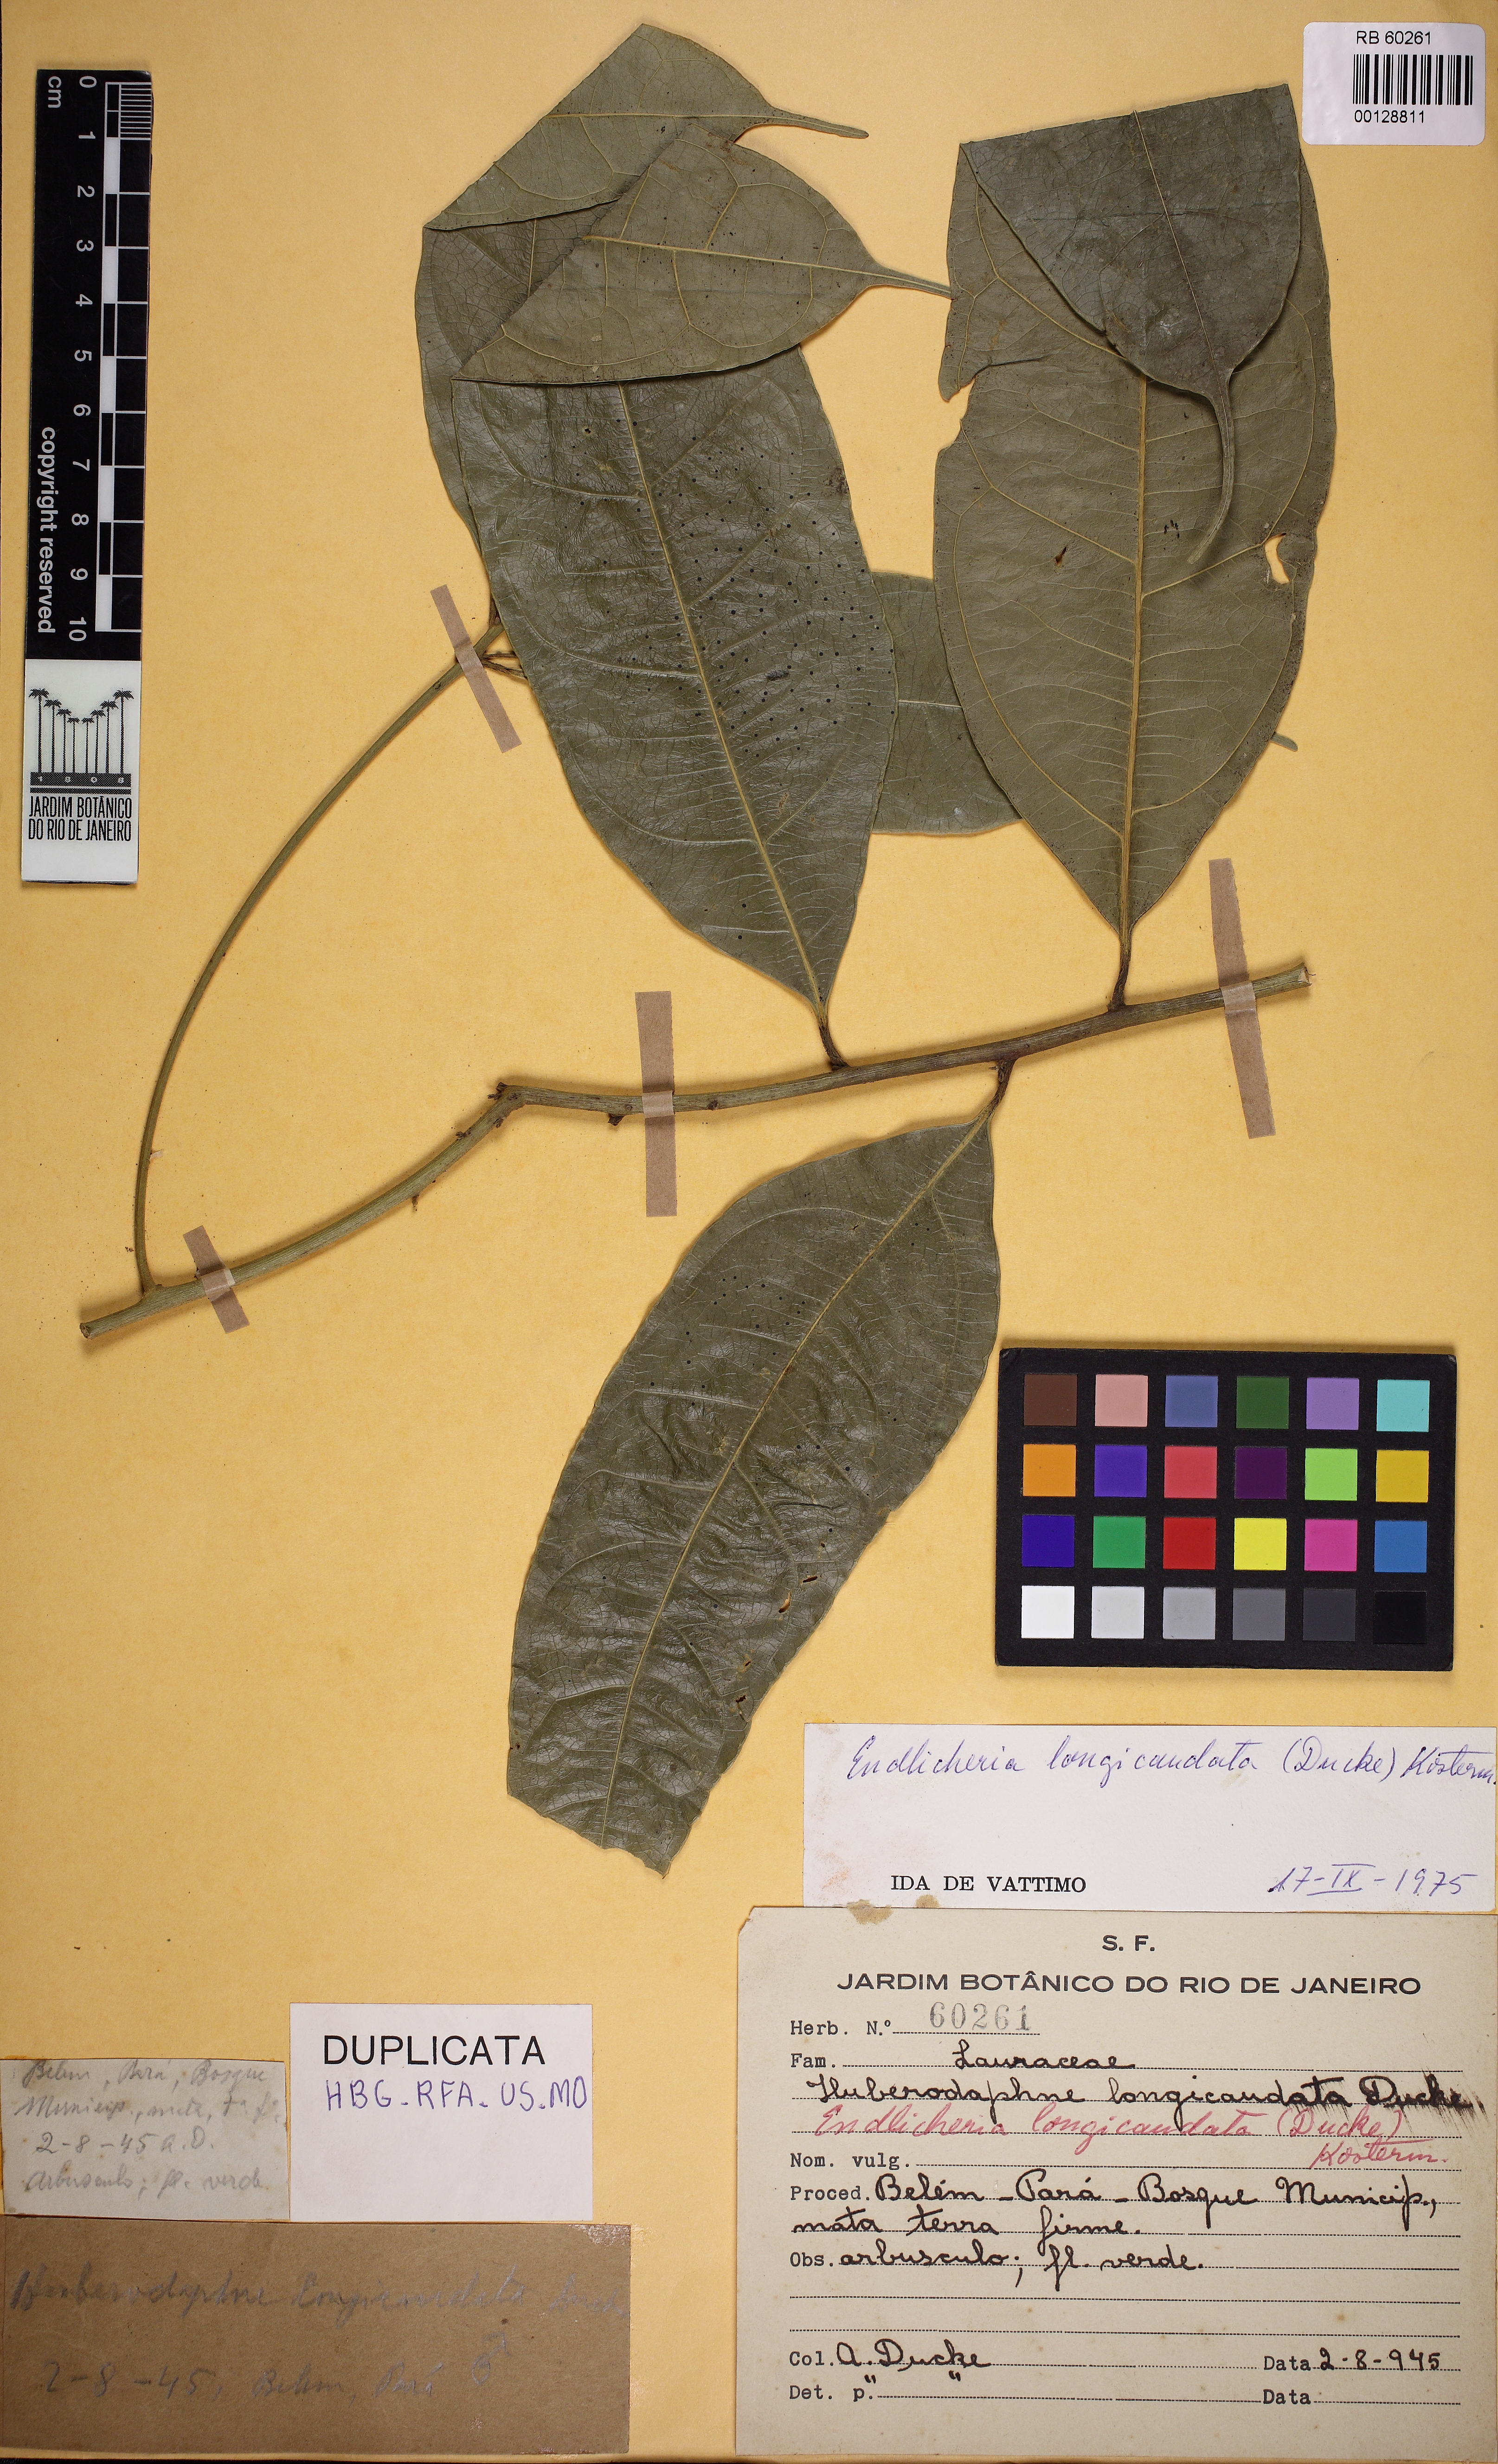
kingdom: Plantae
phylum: Tracheophyta
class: Magnoliopsida
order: Laurales
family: Lauraceae
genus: Endlicheria
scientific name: Endlicheria longicaudata
